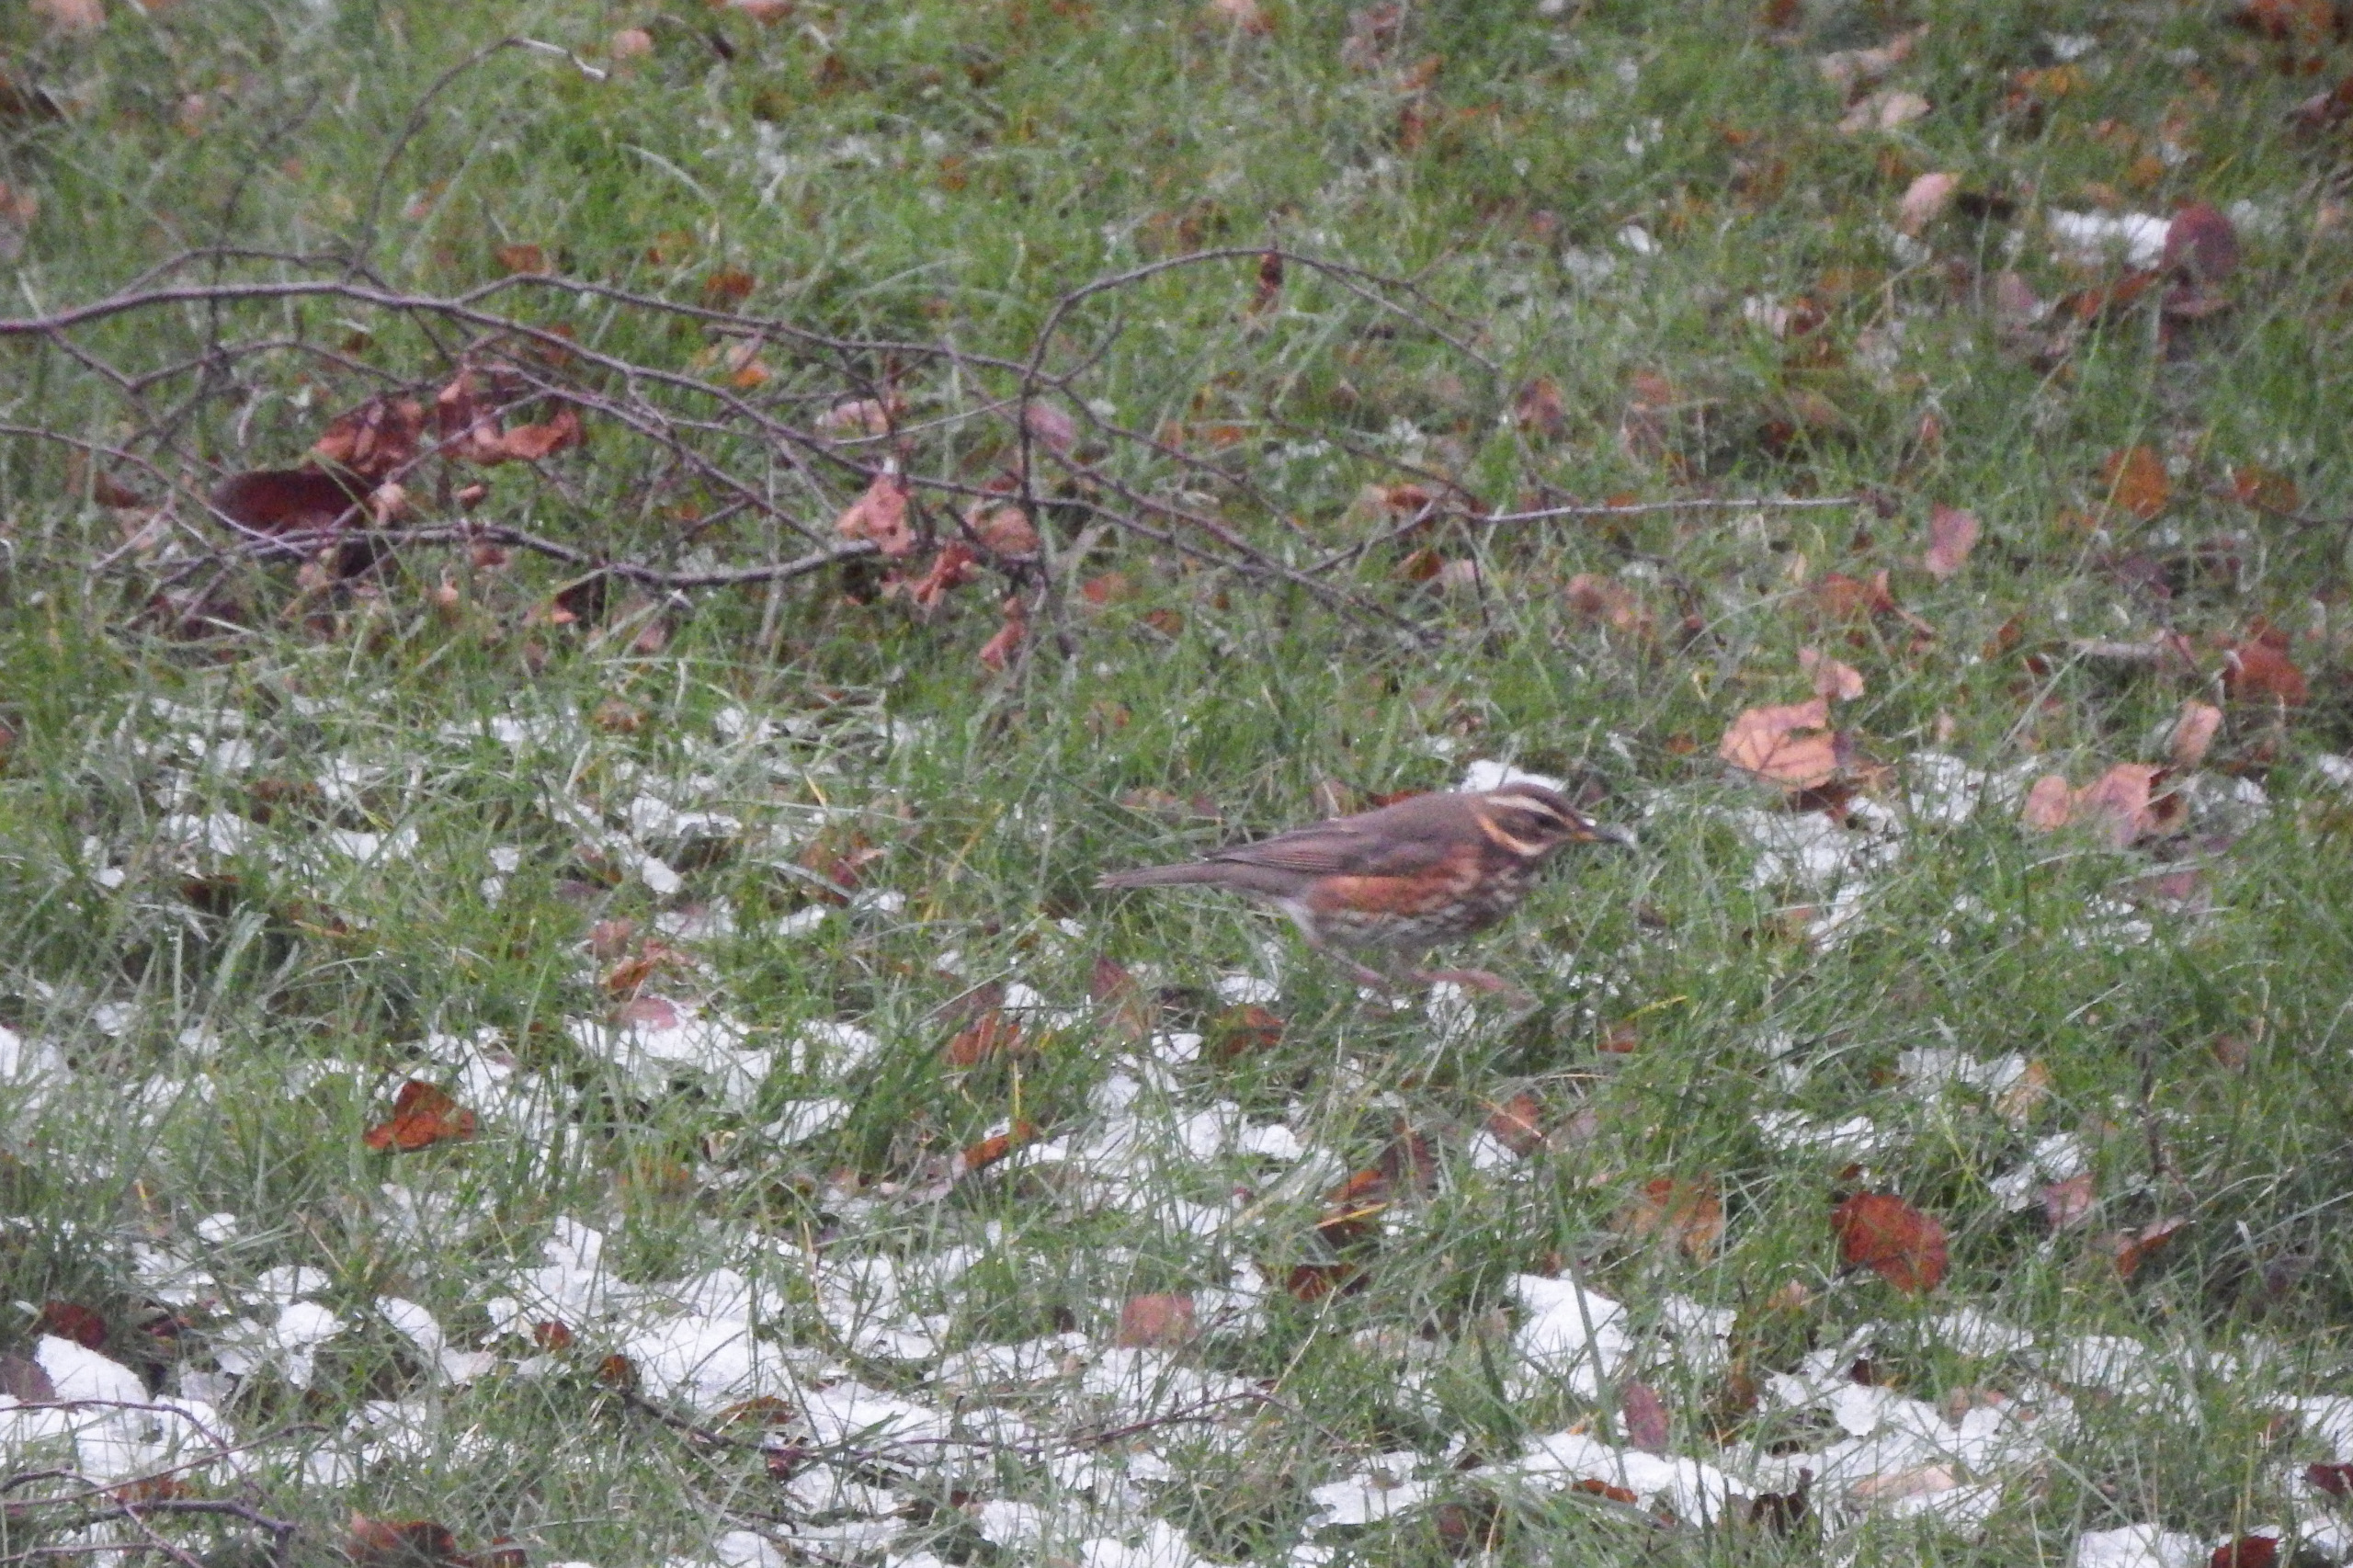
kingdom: Animalia
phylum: Chordata
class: Aves
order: Passeriformes
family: Turdidae
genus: Turdus
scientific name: Turdus iliacus
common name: Vindrossel
